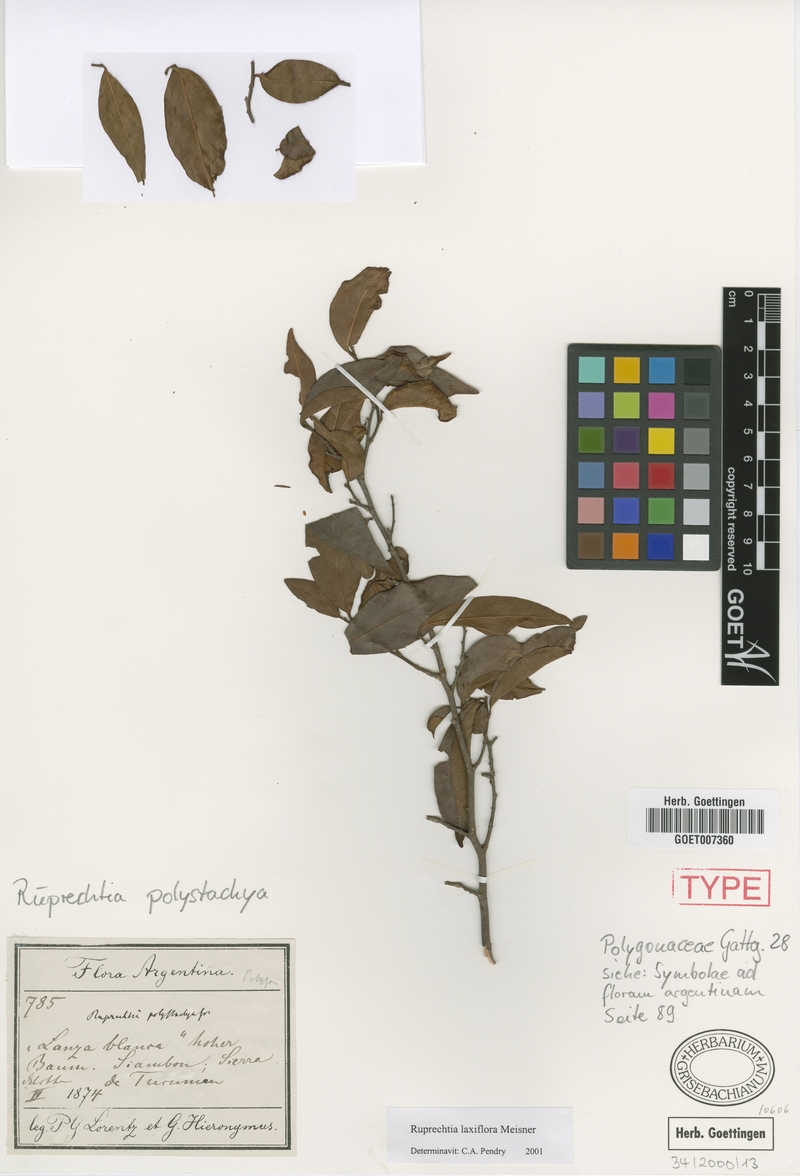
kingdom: Plantae
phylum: Tracheophyta
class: Magnoliopsida
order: Caryophyllales
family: Polygonaceae
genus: Ruprechtia
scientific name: Ruprechtia laxiflora
